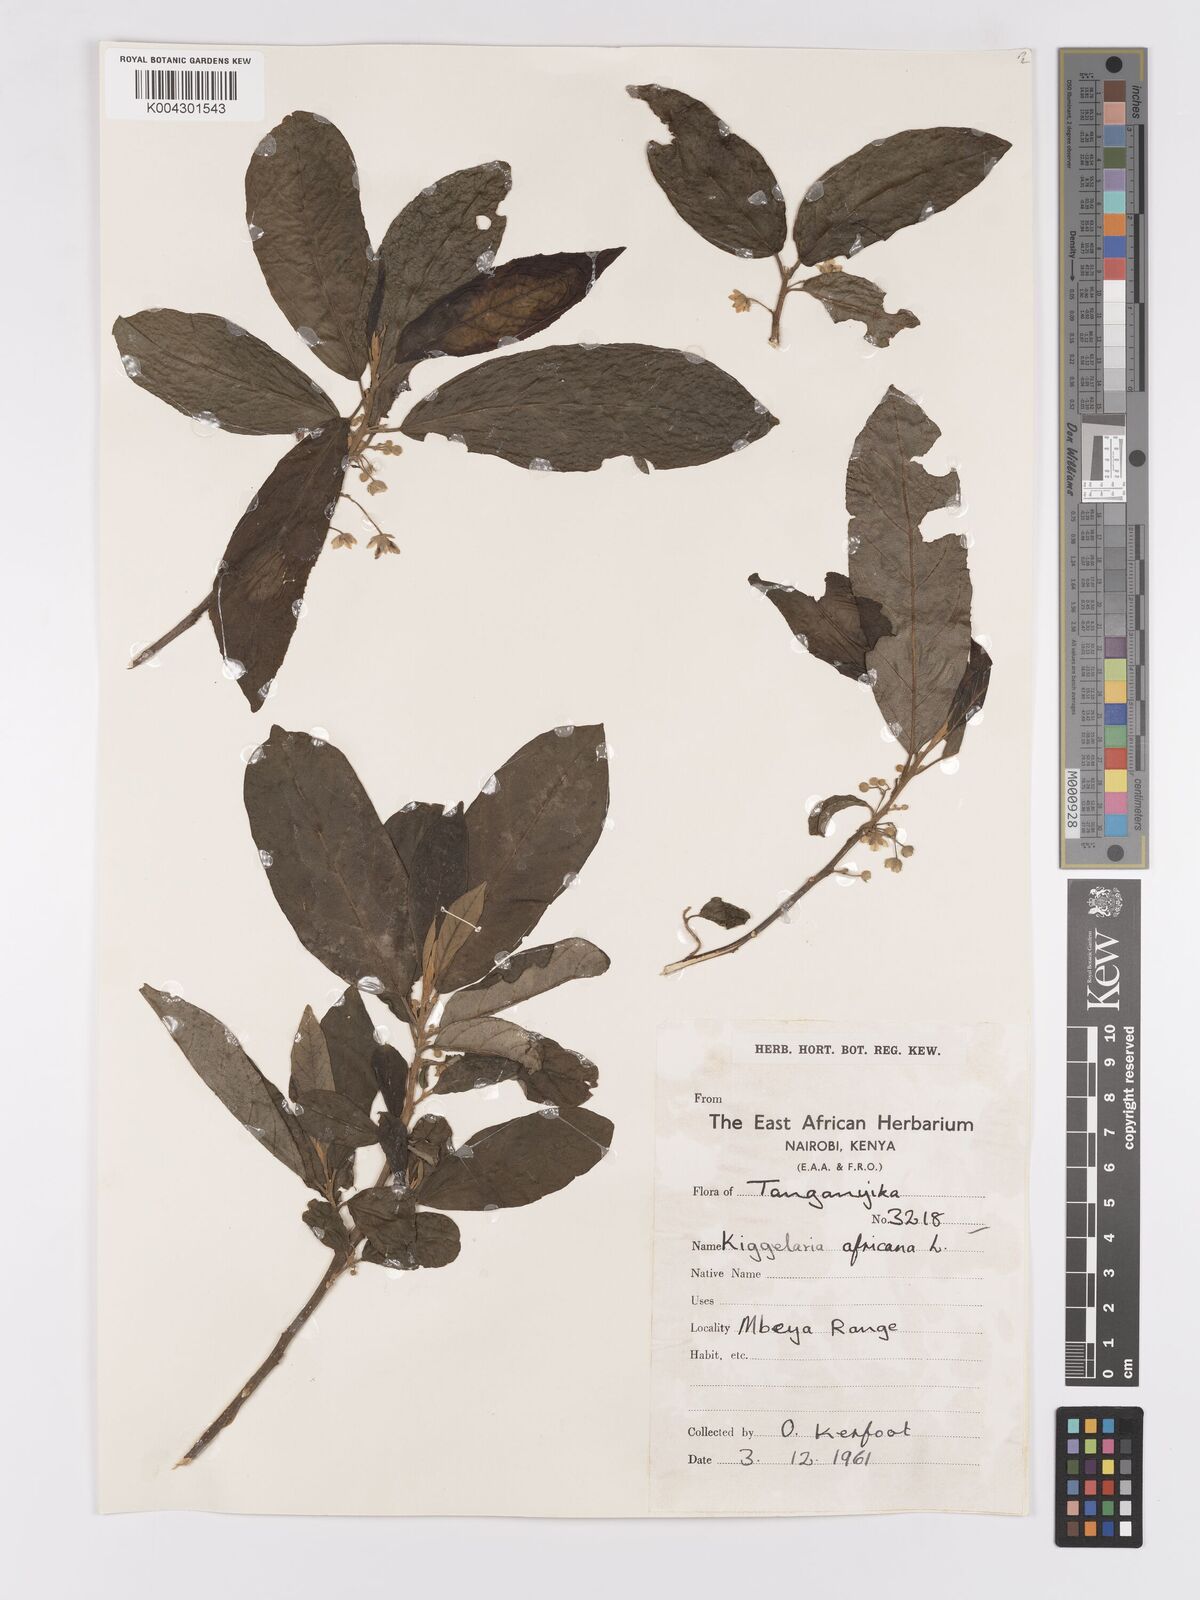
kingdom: Plantae
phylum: Tracheophyta
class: Magnoliopsida
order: Malpighiales
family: Achariaceae
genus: Kiggelaria
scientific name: Kiggelaria africana
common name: Wild peach
